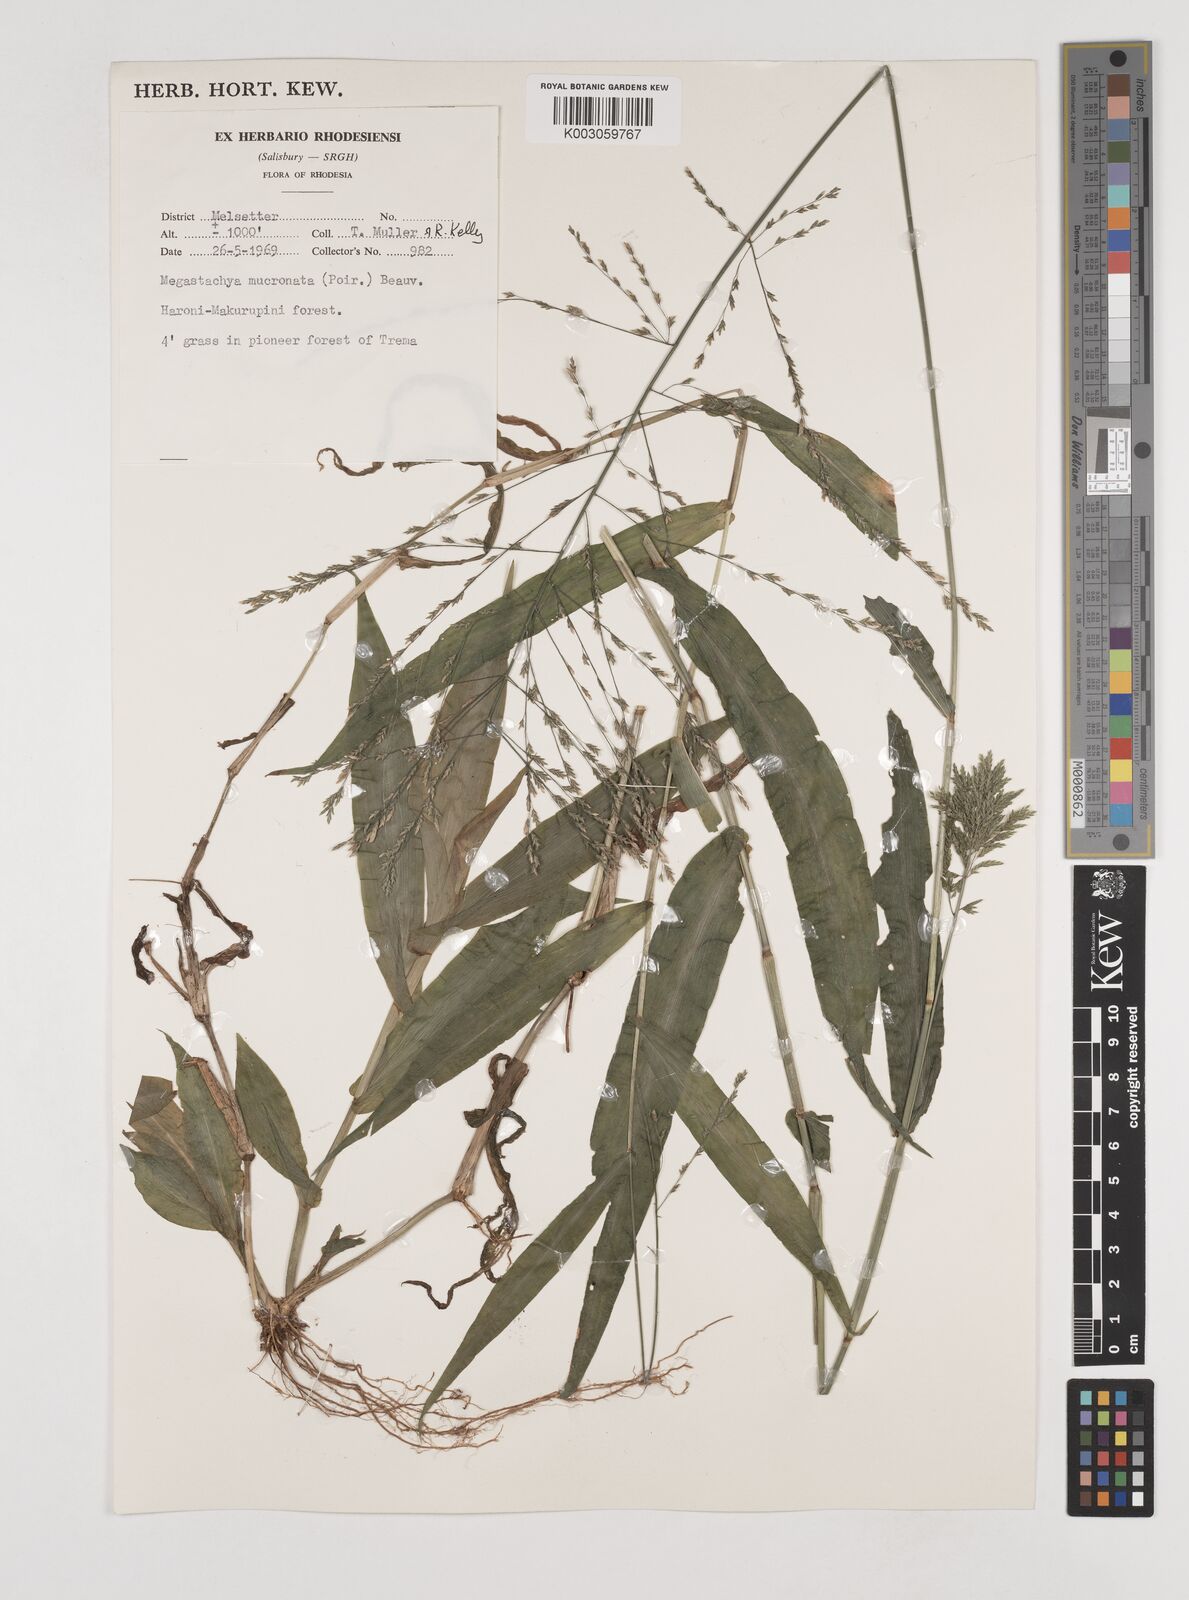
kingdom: Plantae
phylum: Tracheophyta
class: Liliopsida
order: Poales
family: Poaceae
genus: Megastachya
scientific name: Megastachya mucronata
